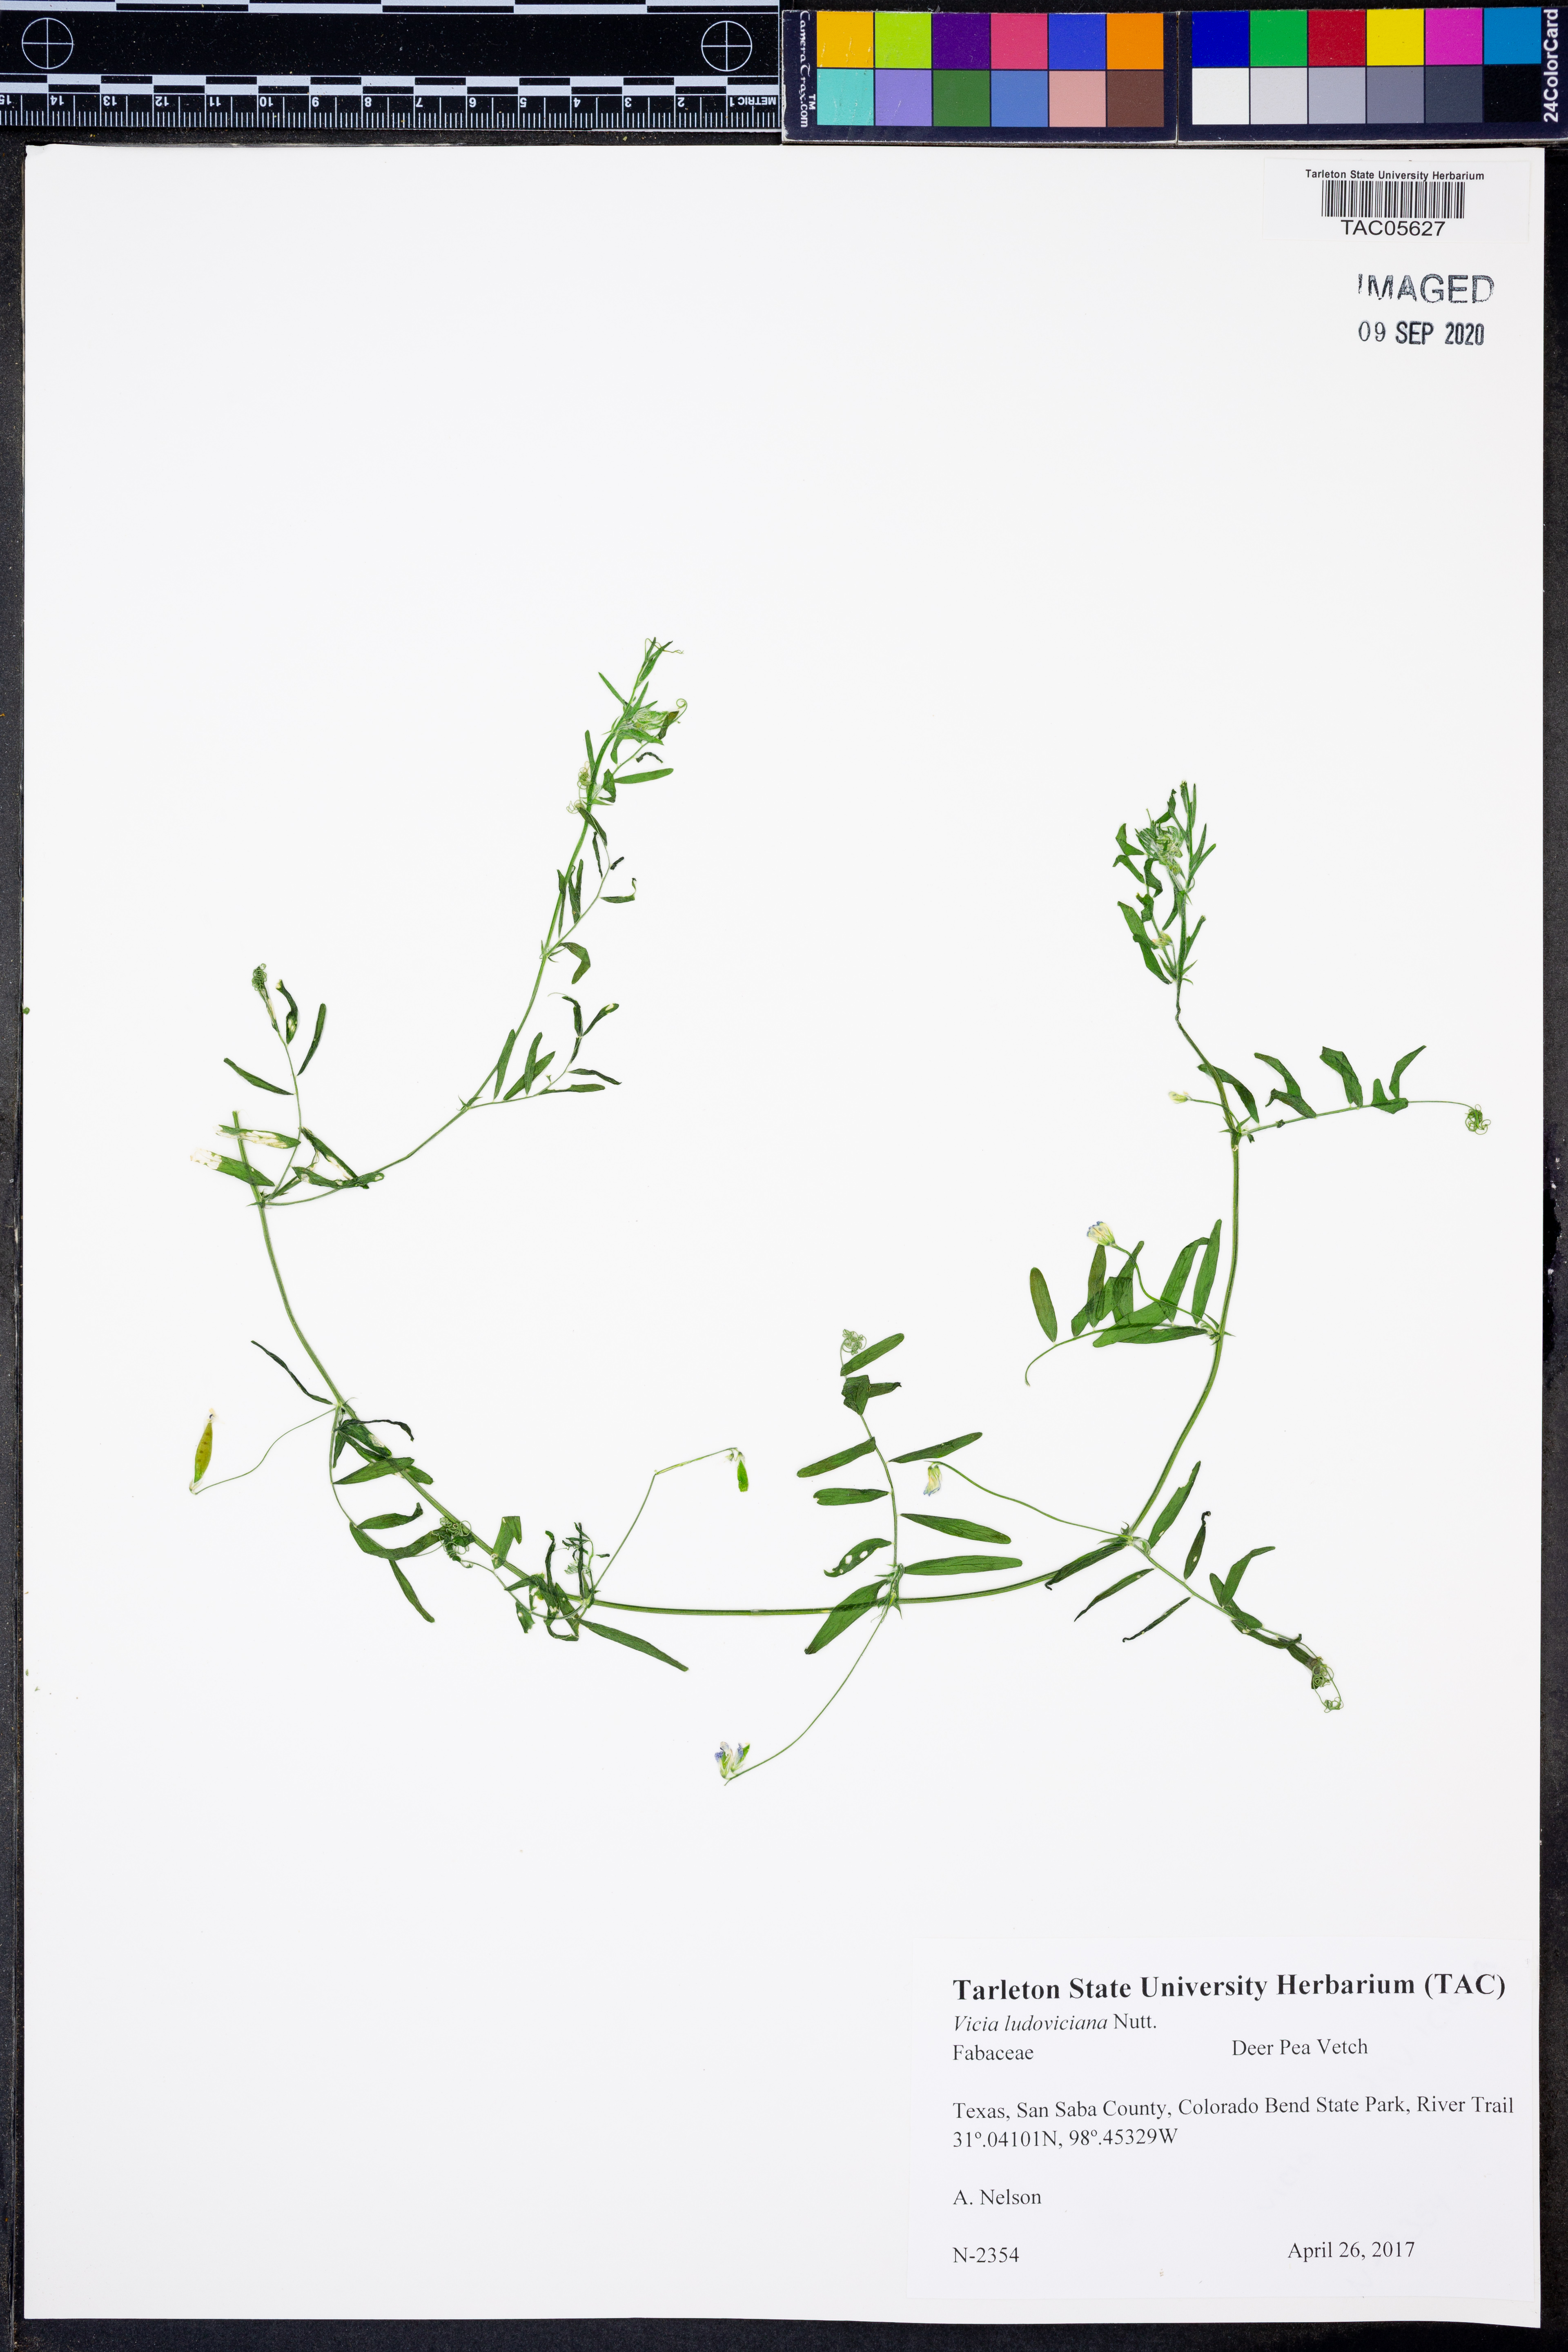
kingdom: Plantae
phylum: Tracheophyta
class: Magnoliopsida
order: Fabales
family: Fabaceae
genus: Vicia
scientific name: Vicia ludoviciana
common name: Louisiana vetch
